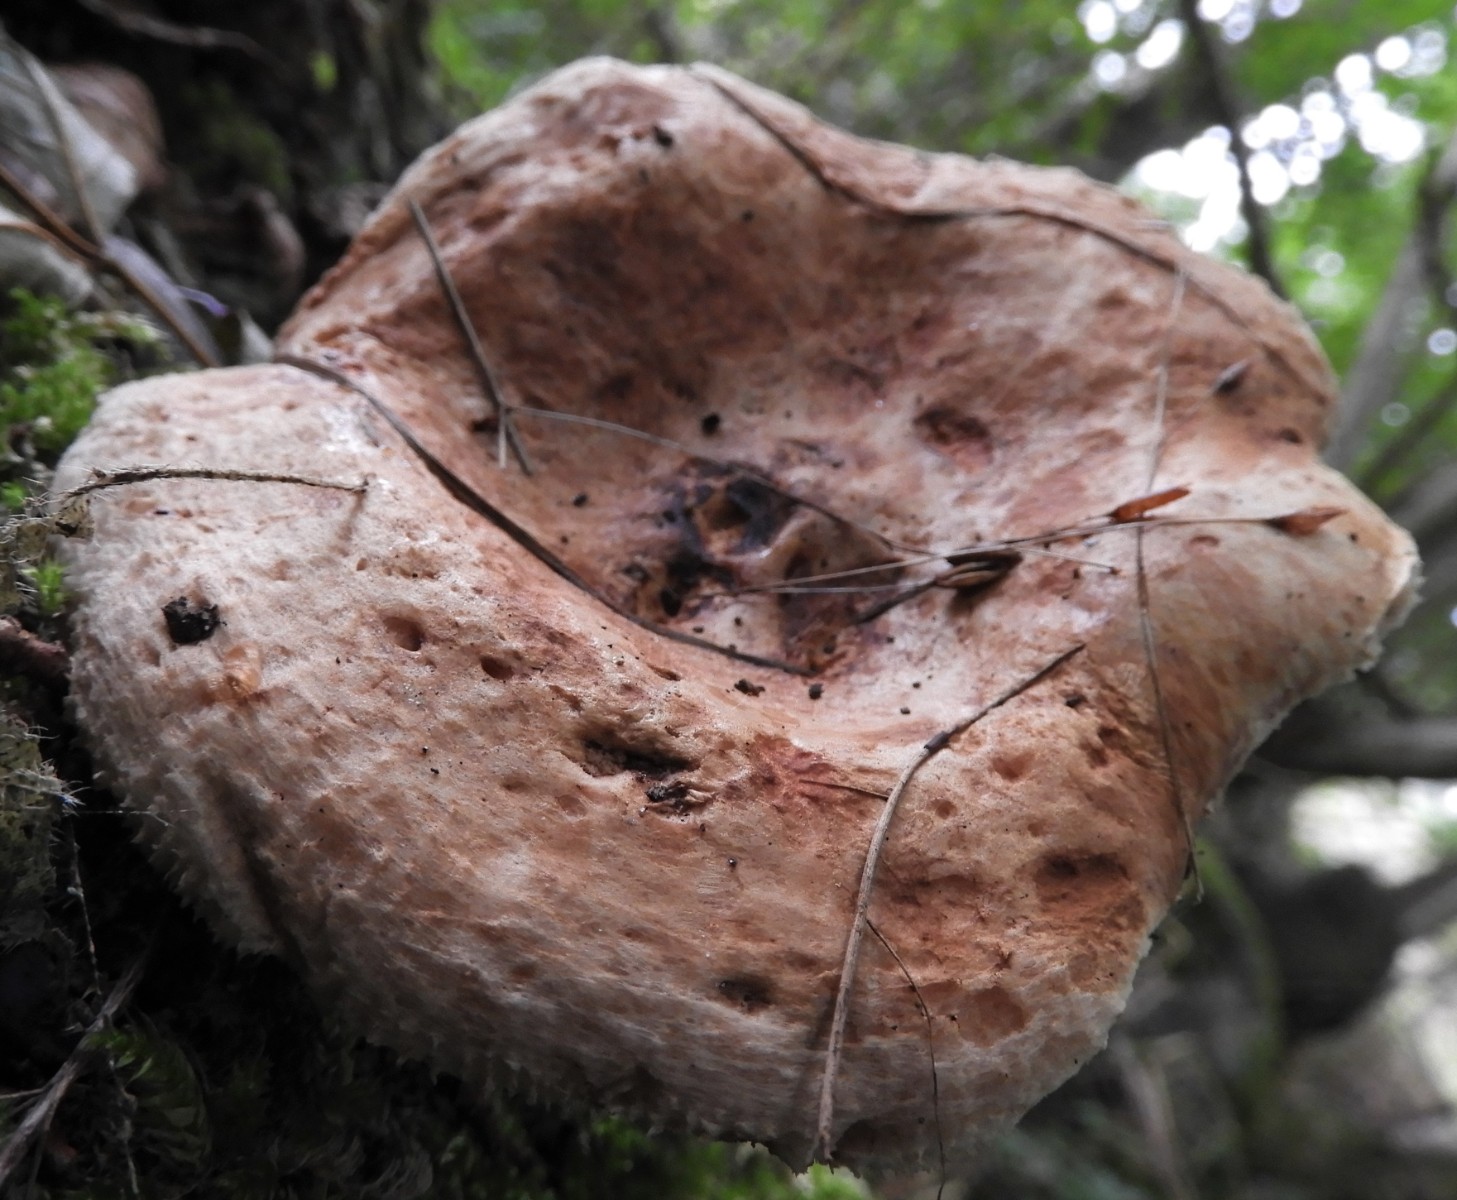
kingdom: Fungi
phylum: Basidiomycota
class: Agaricomycetes
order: Boletales
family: Paxillaceae
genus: Paxillus
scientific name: Paxillus
